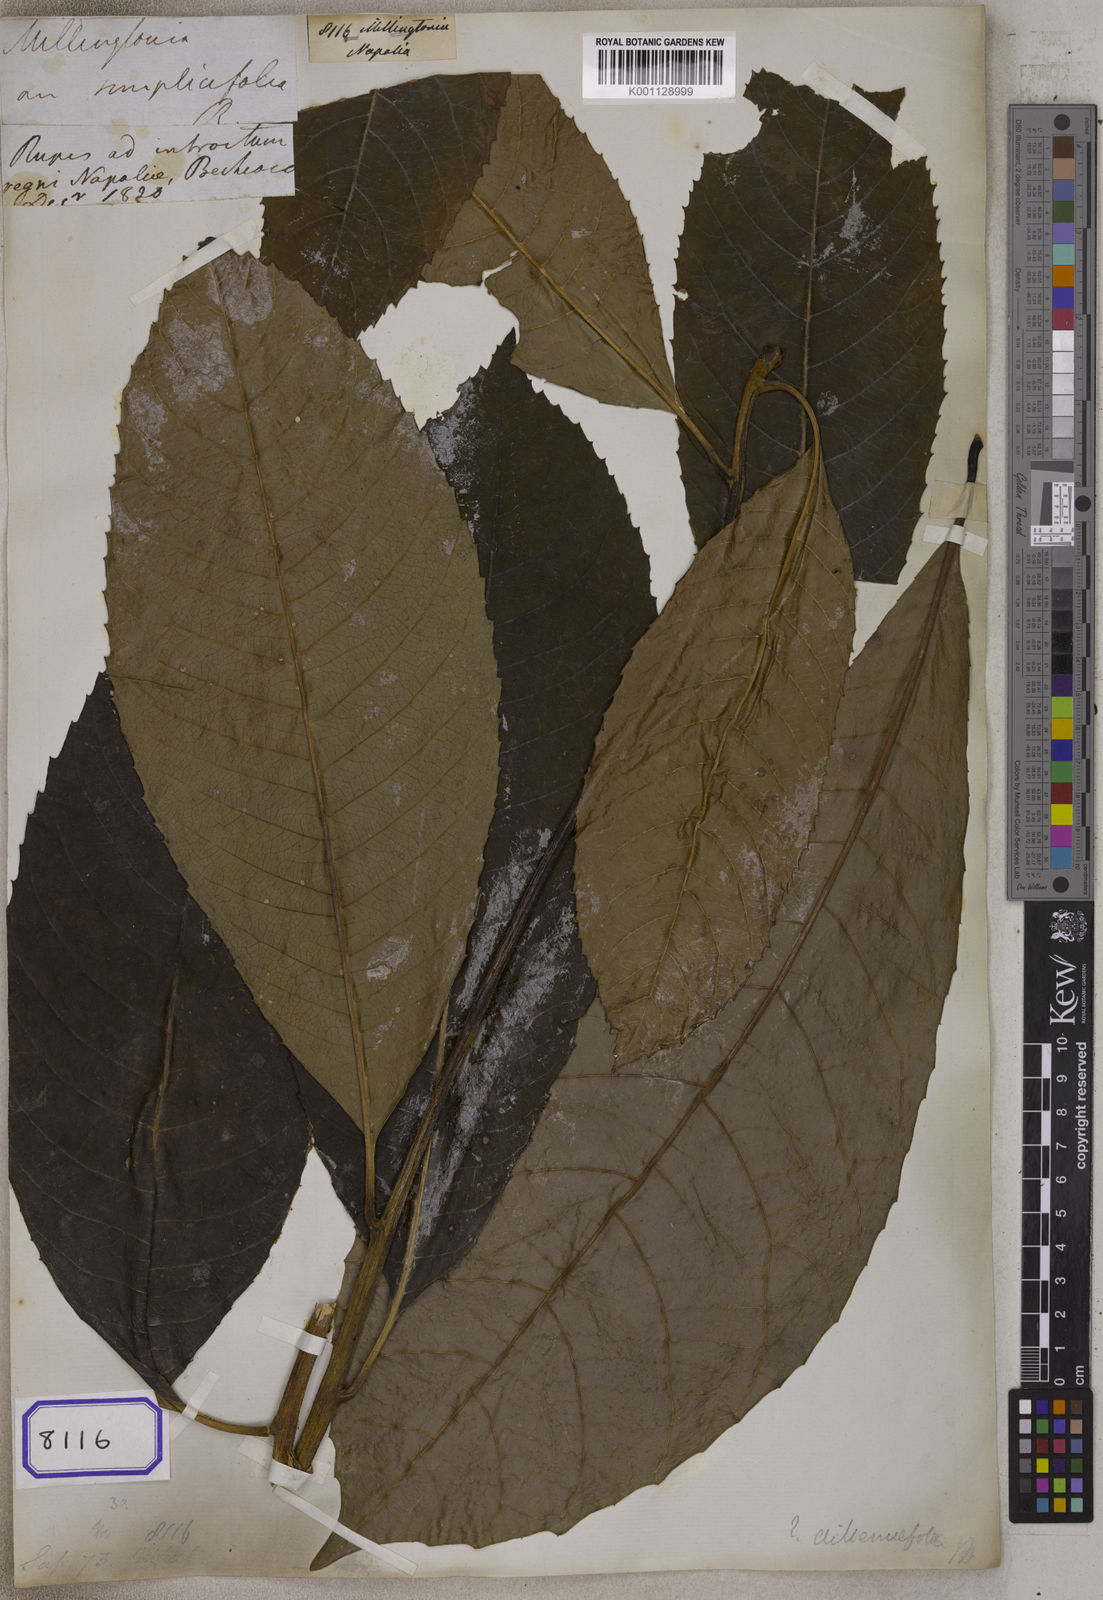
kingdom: Plantae
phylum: Tracheophyta
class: Magnoliopsida
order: Lamiales
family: Bignoniaceae
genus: Millingtonia
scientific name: Millingtonia
